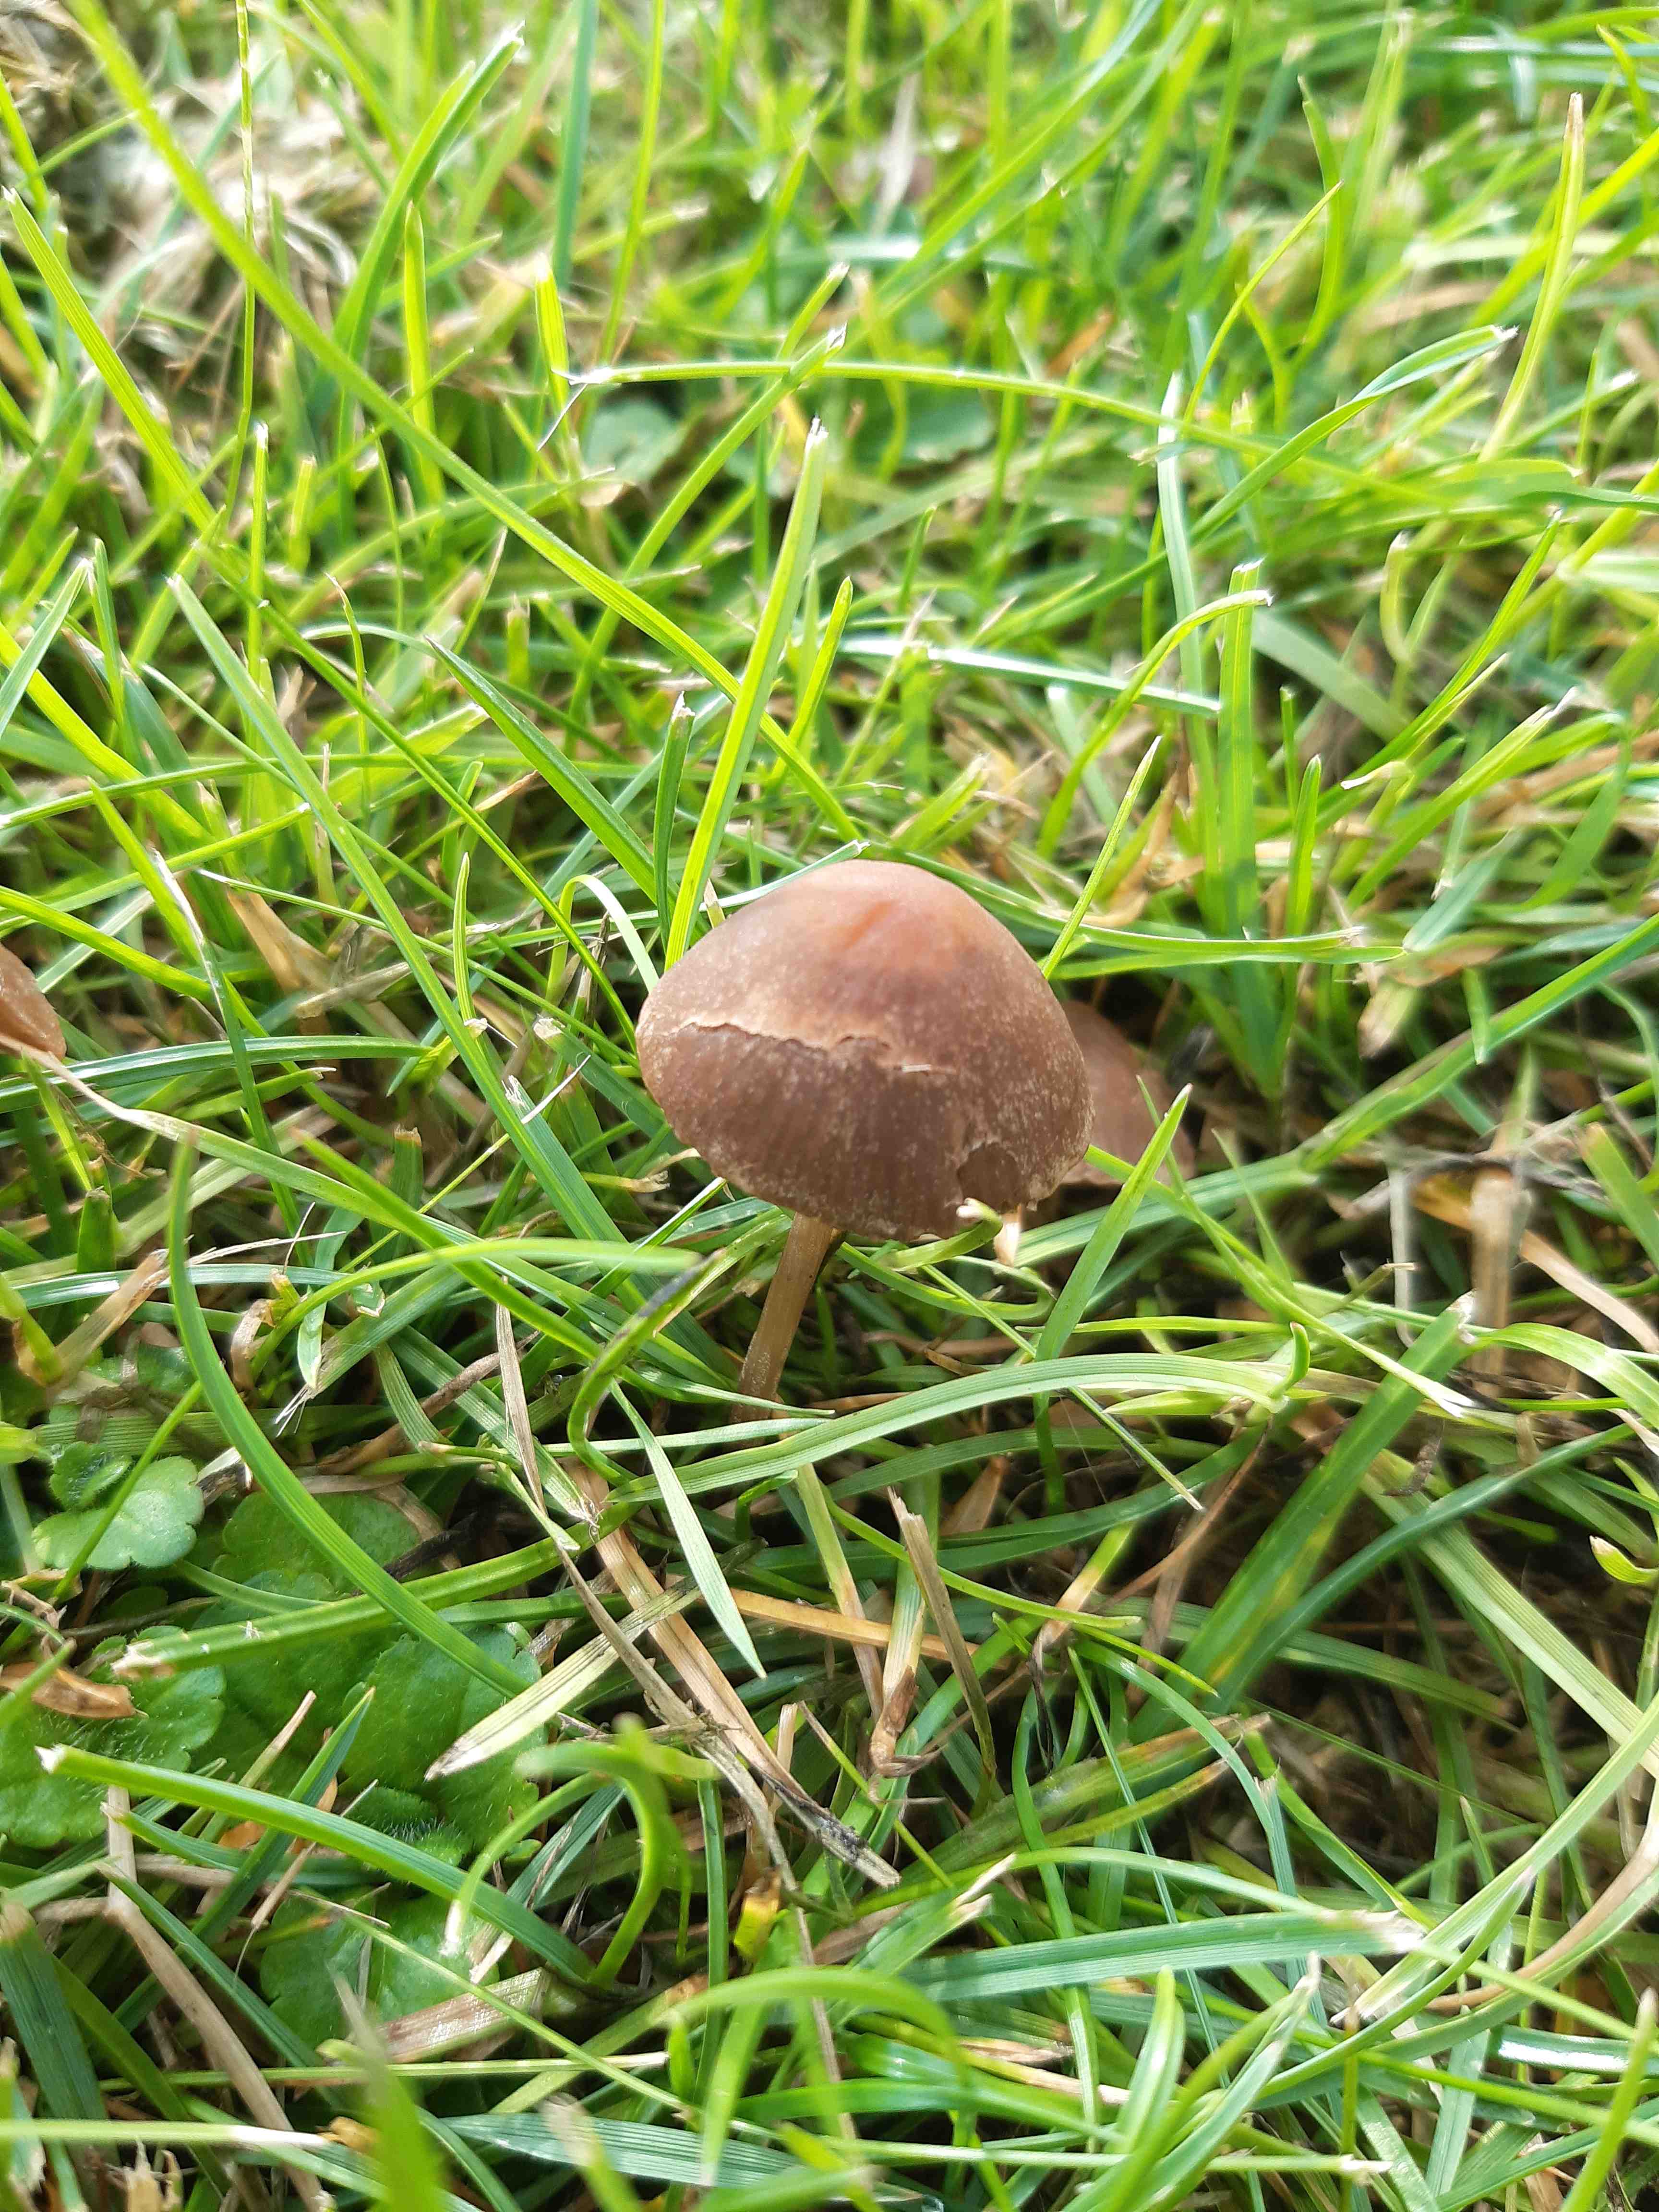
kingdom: Fungi
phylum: Basidiomycota
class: Agaricomycetes
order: Agaricales
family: Bolbitiaceae
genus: Panaeolina
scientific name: Panaeolina foenisecii
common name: høslætsvamp
